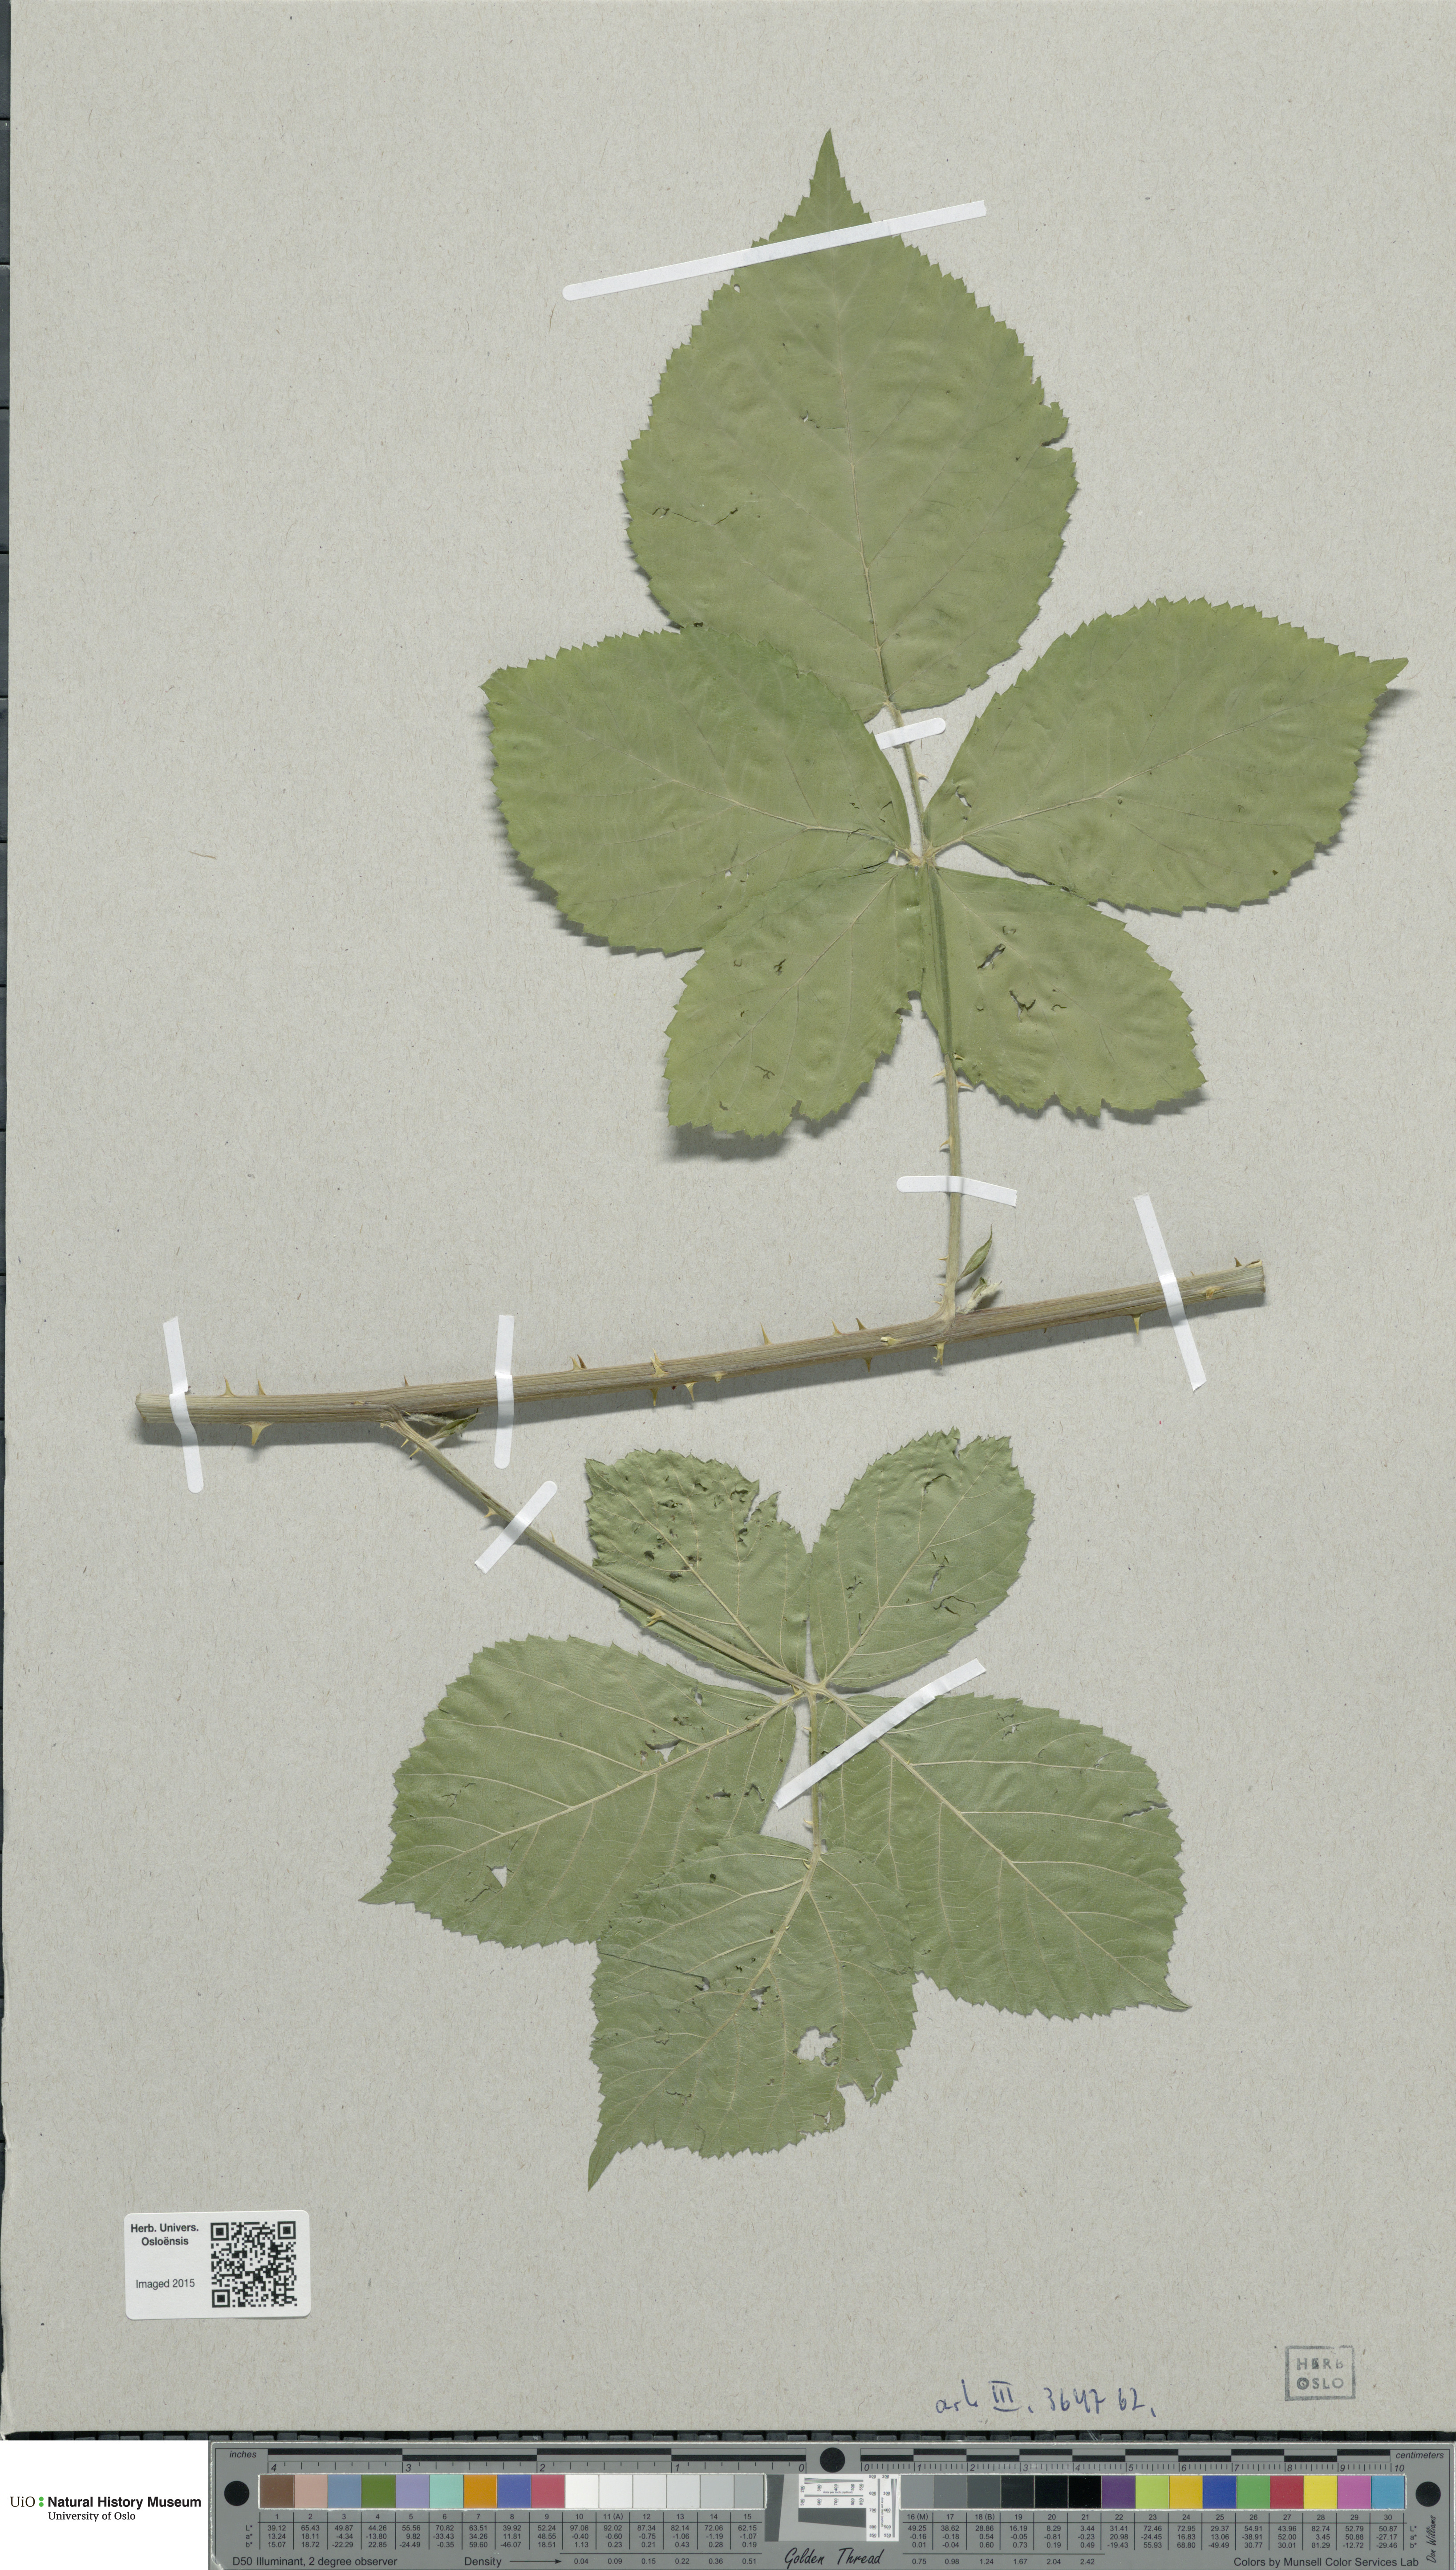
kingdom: Plantae
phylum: Tracheophyta
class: Magnoliopsida
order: Rosales
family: Rosaceae
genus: Rubus
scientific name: Rubus nemorosus
